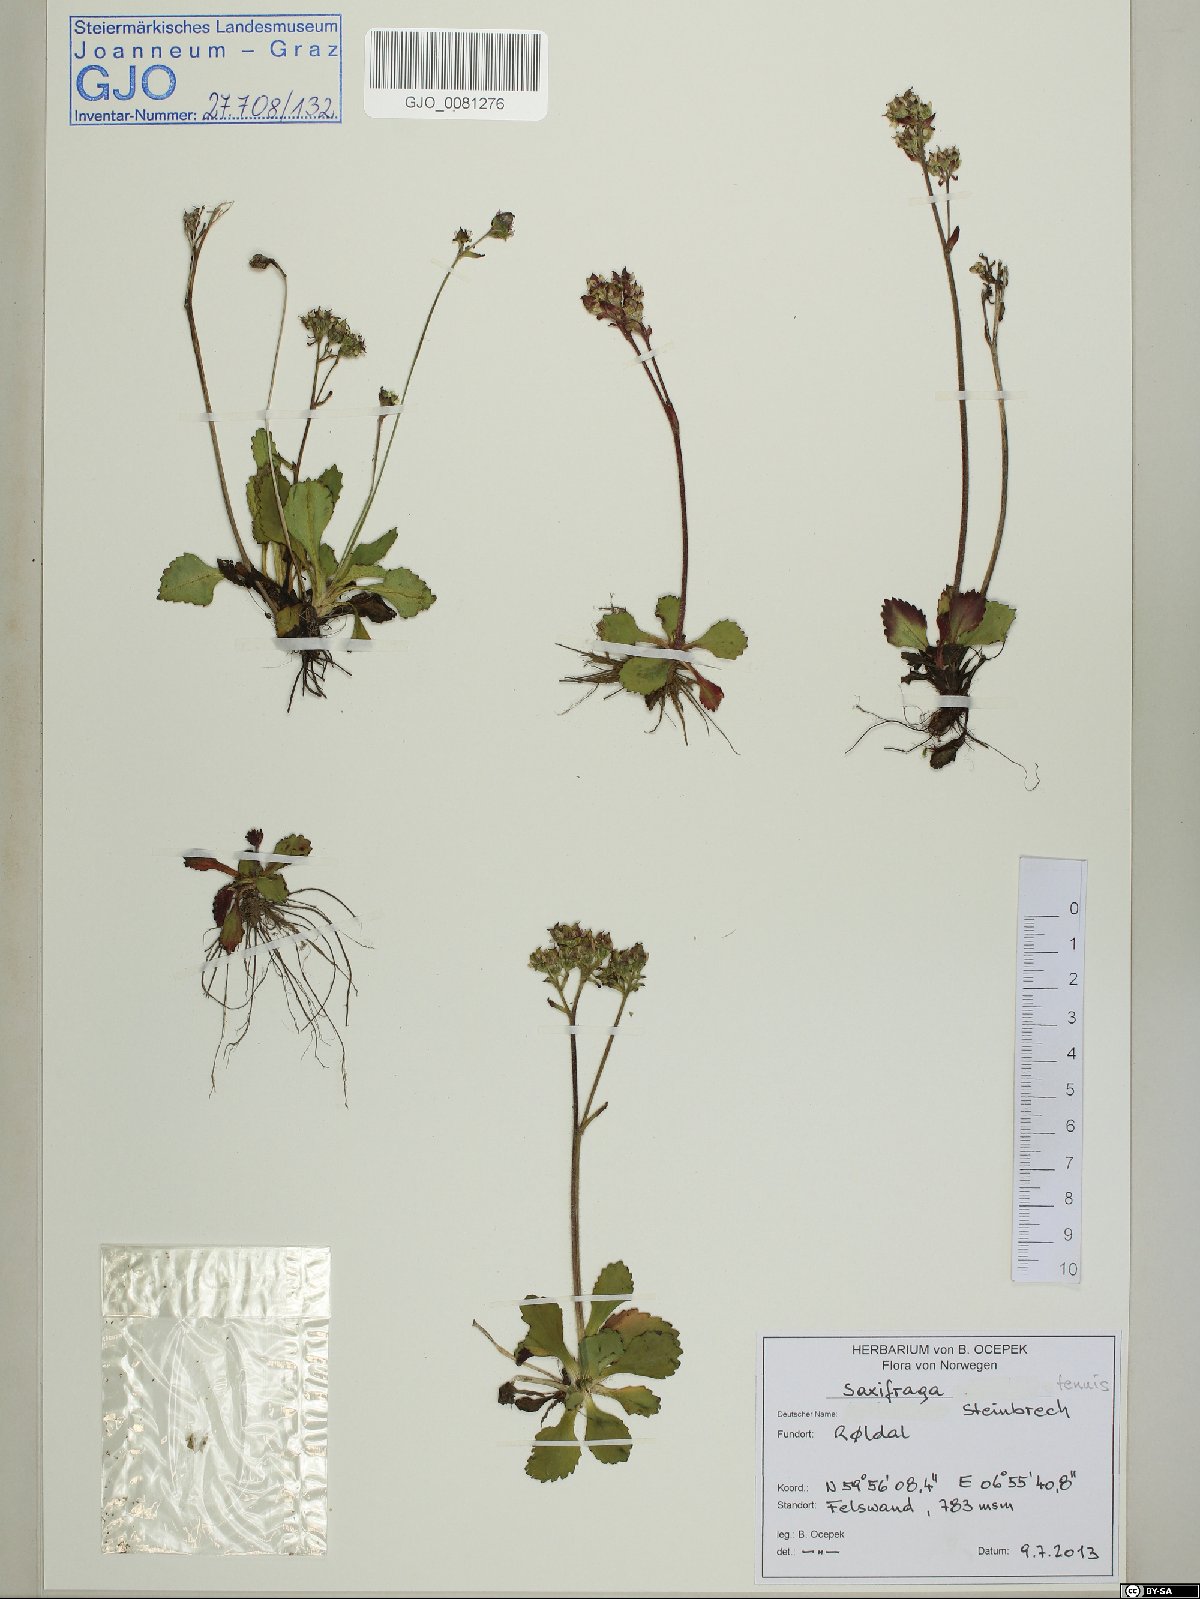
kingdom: Plantae
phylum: Tracheophyta
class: Magnoliopsida
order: Saxifragales
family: Saxifragaceae
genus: Micranthes
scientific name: Micranthes tenuis
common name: Ottertail pass saxifrage
